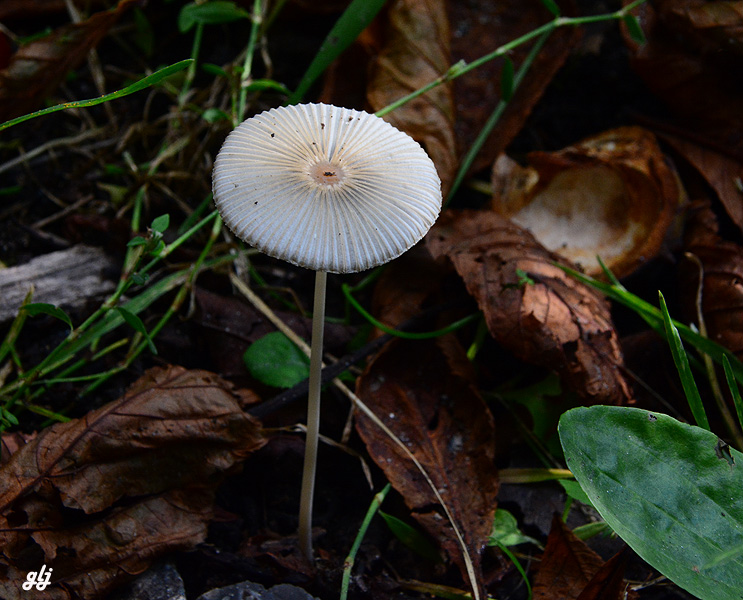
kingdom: Fungi
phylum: Basidiomycota
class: Agaricomycetes
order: Agaricales
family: Psathyrellaceae
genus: Parasola
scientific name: Parasola
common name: hjulhat
